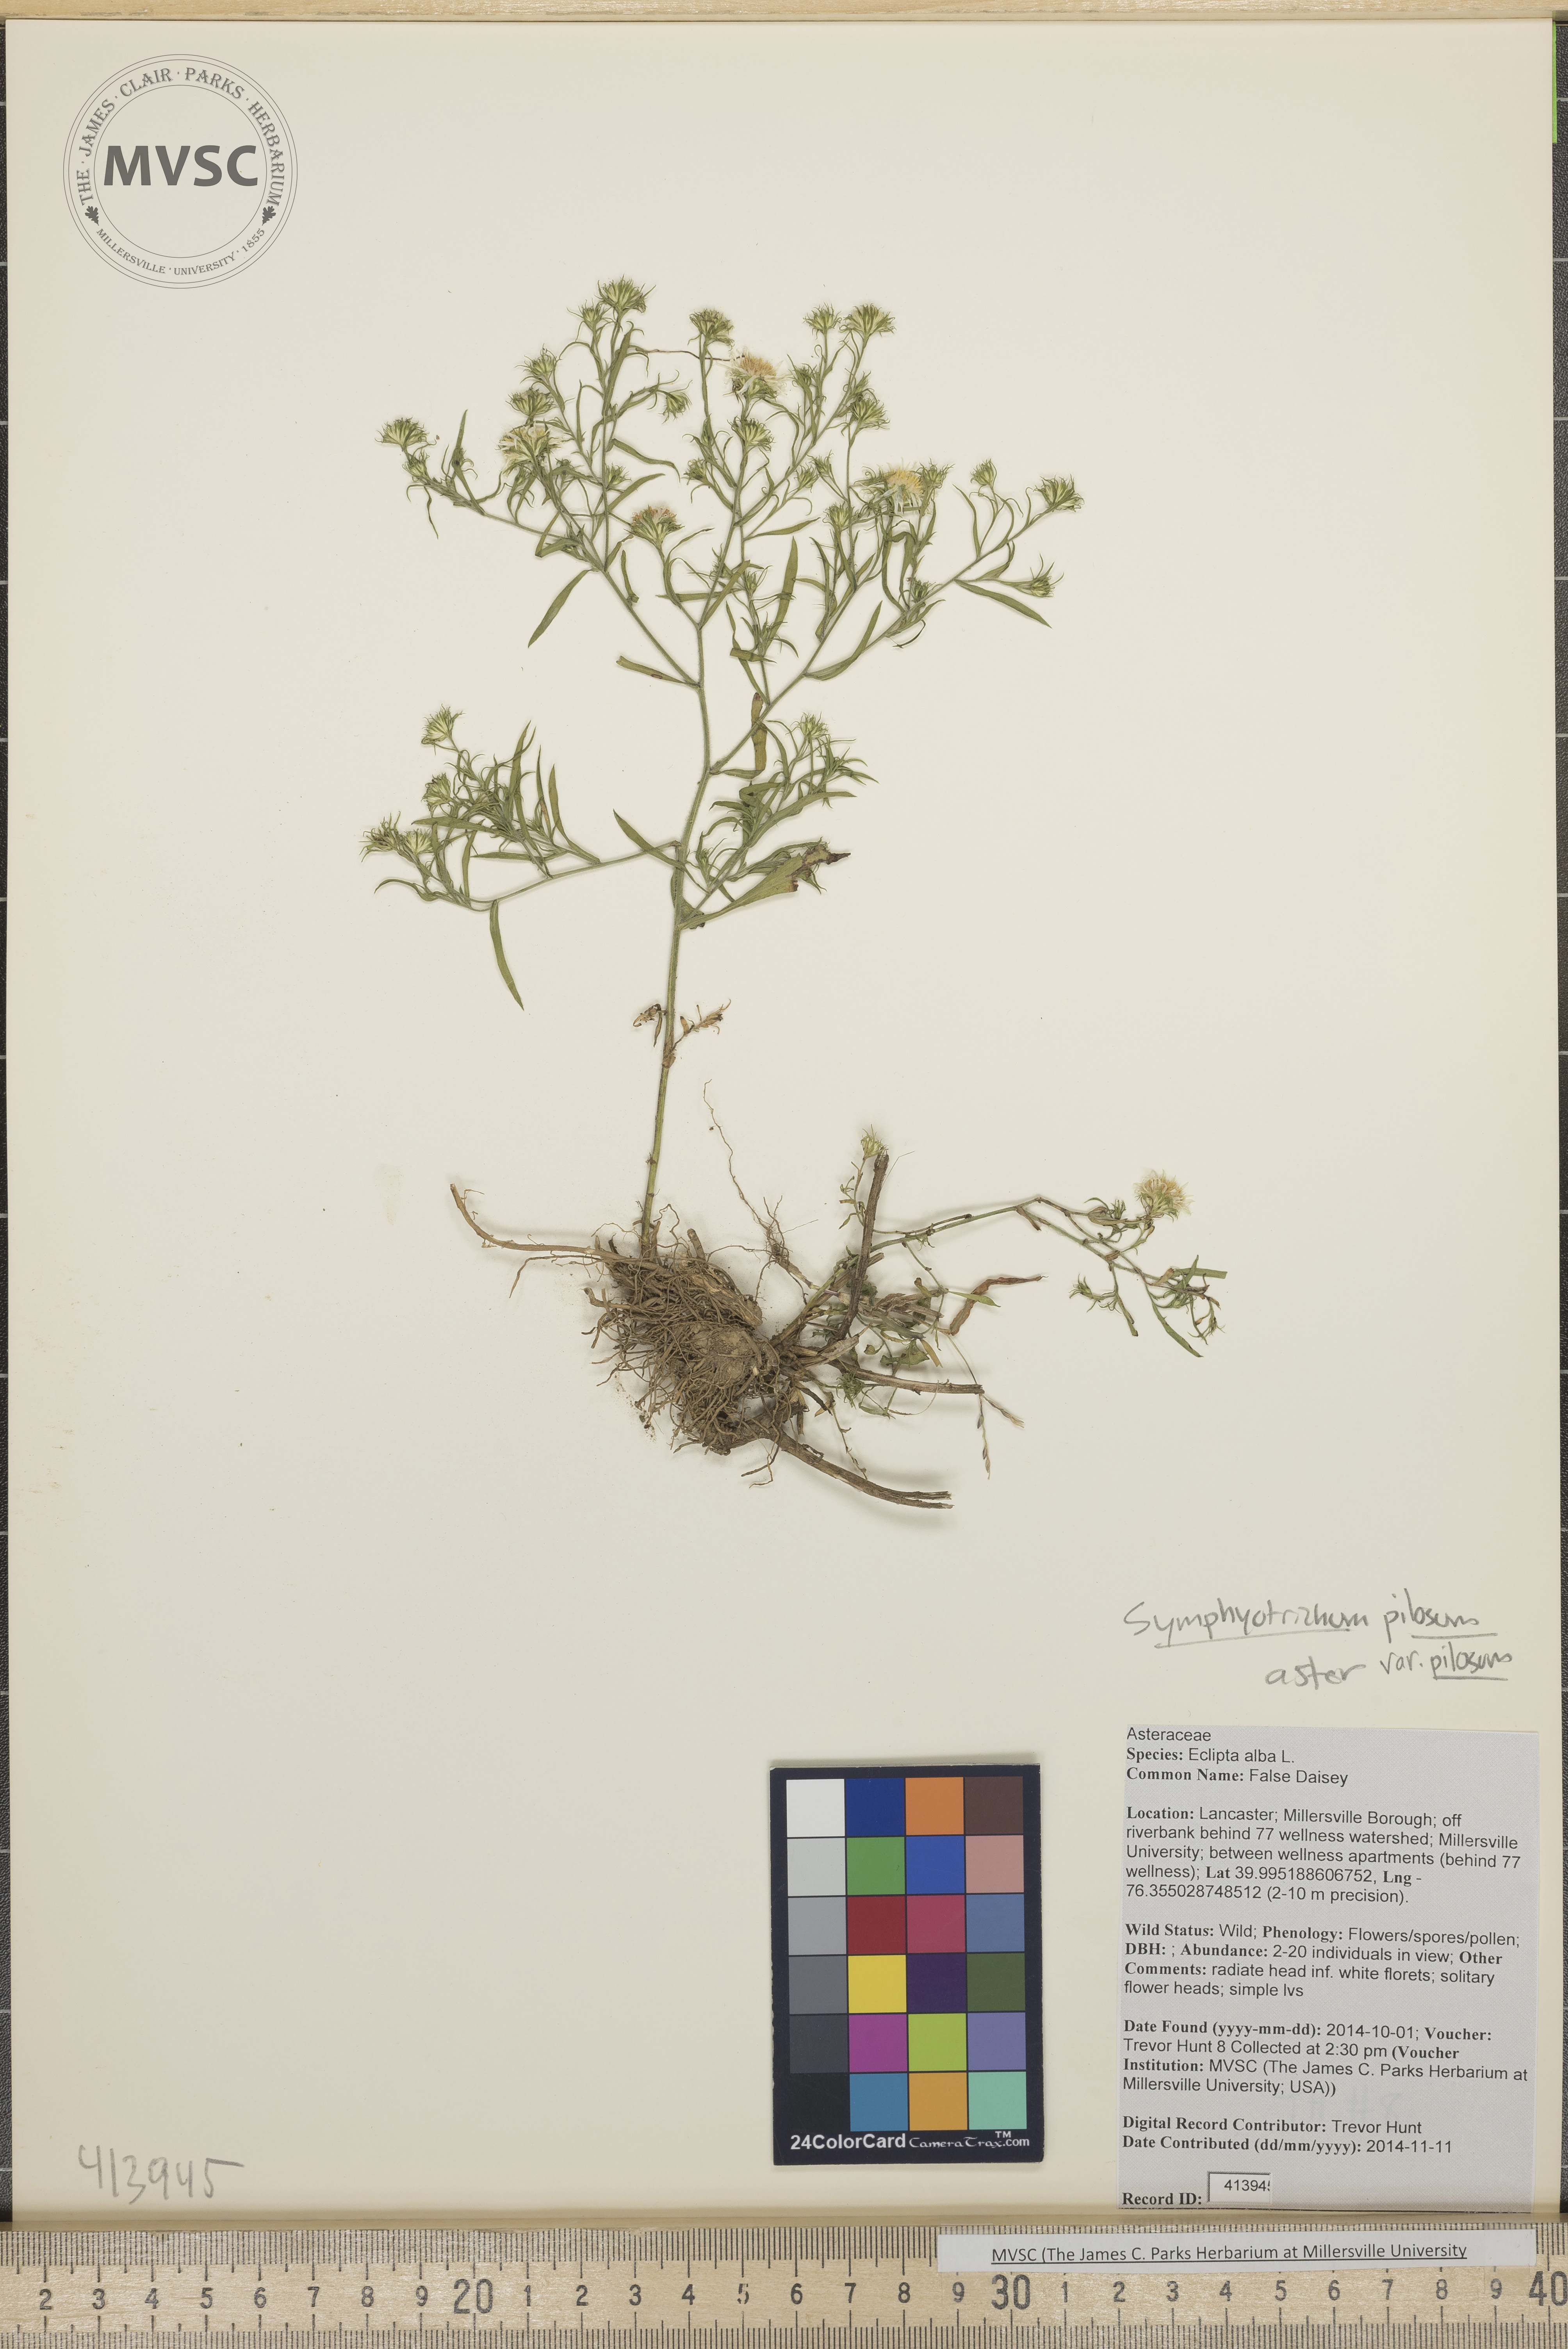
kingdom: Plantae
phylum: Tracheophyta
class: Magnoliopsida
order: Asterales
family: Asteraceae
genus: Symphyotrichum
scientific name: Symphyotrichum pilosum
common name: Heath aster
